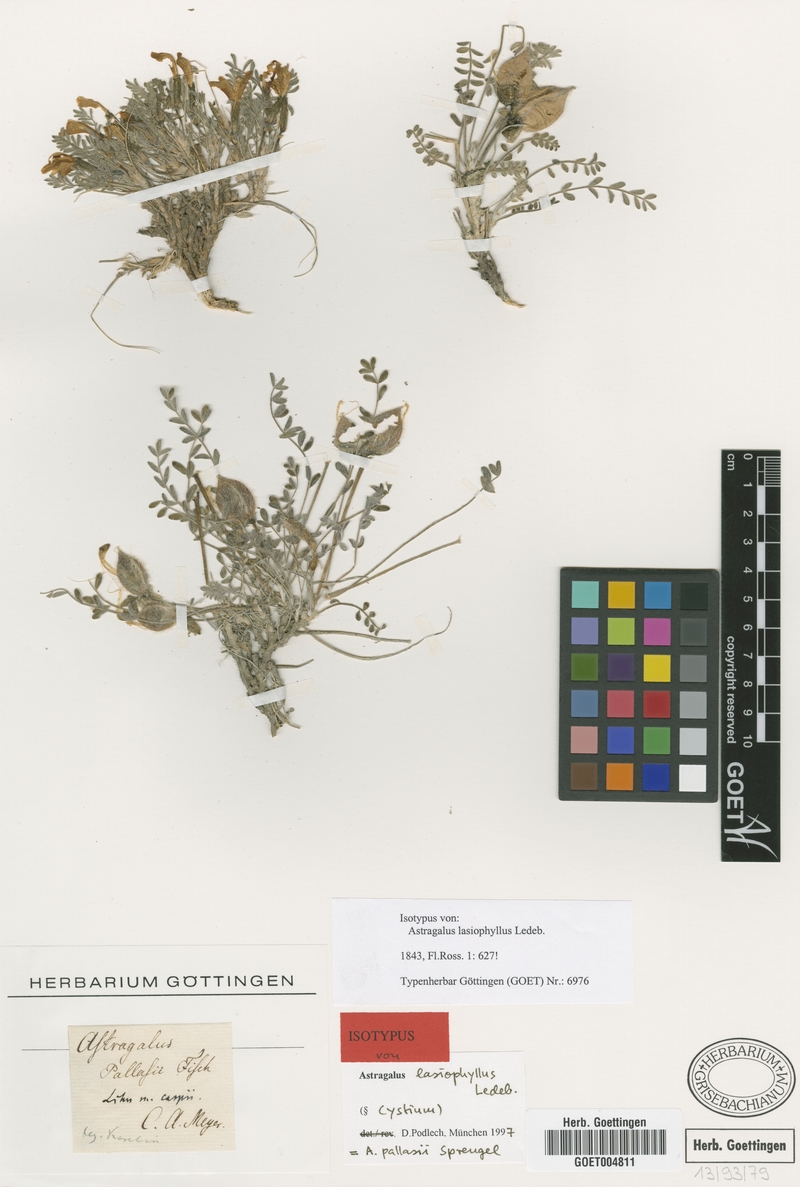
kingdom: Plantae
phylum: Tracheophyta
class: Magnoliopsida
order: Fabales
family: Fabaceae
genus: Astragalus
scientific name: Astragalus pallasii
